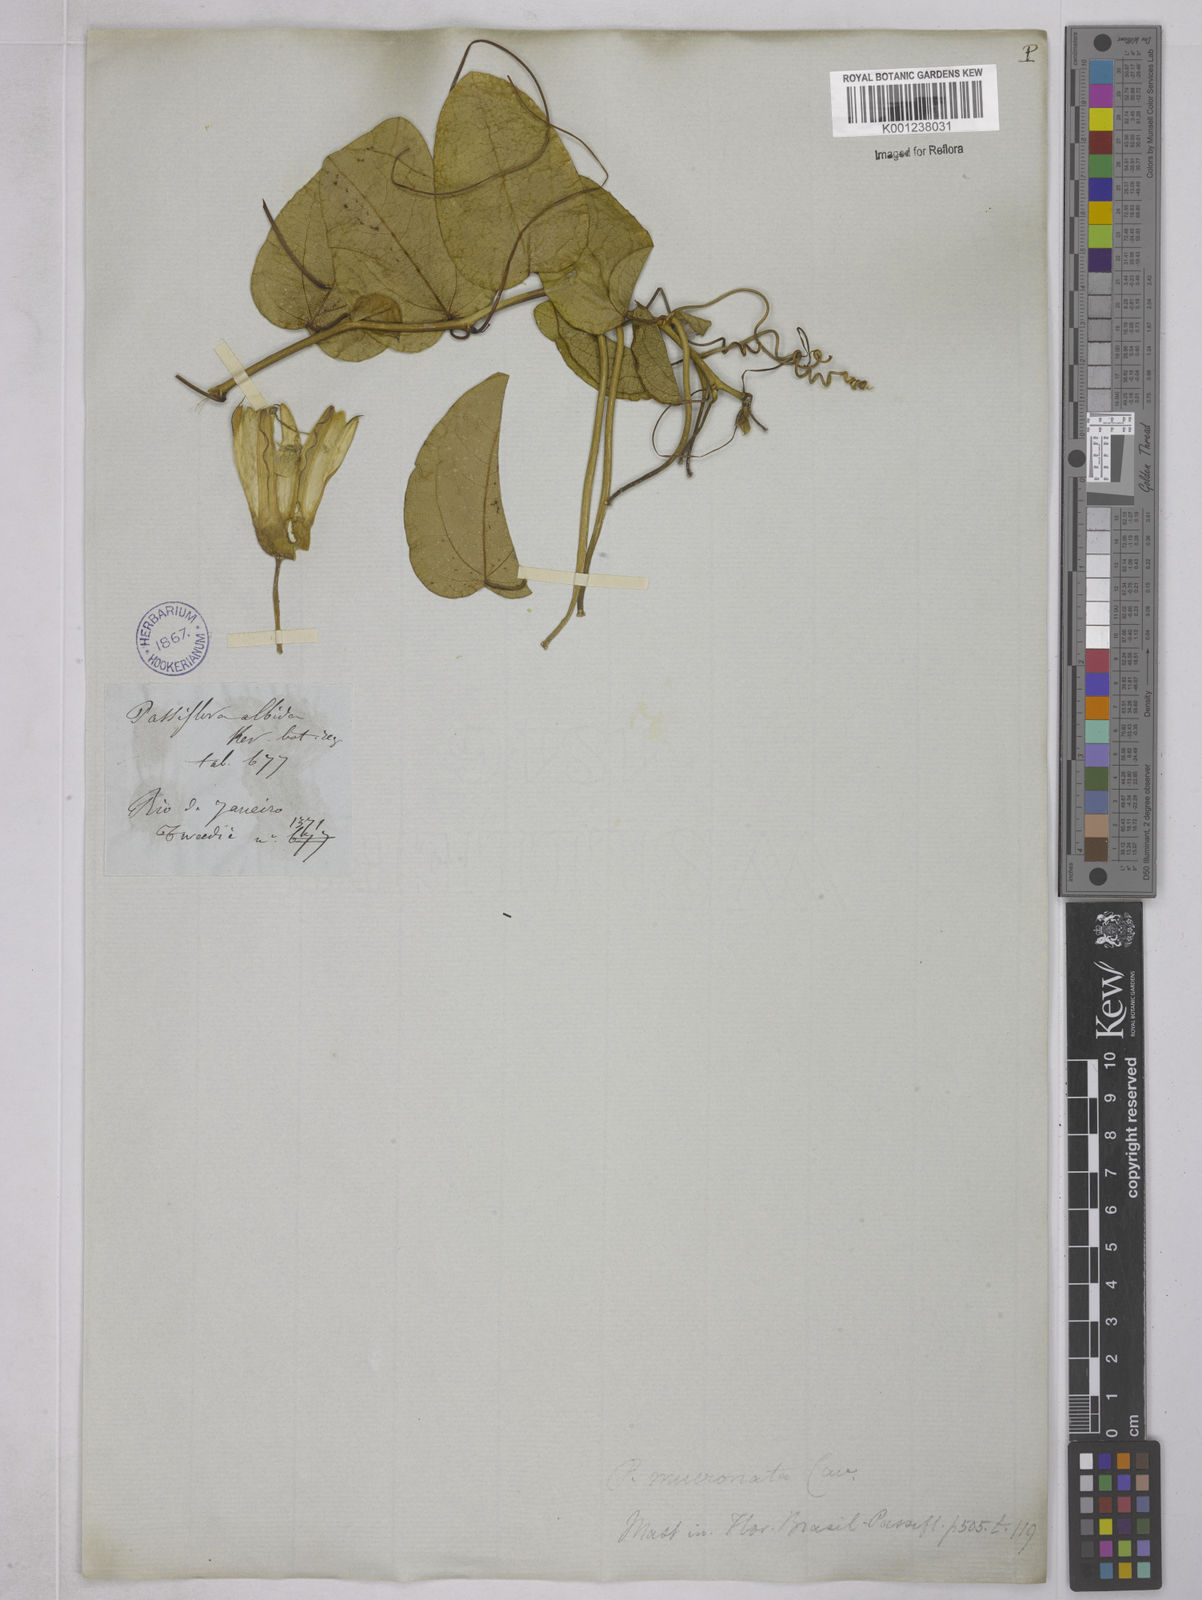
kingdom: Plantae
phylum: Tracheophyta
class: Magnoliopsida
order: Malpighiales
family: Passifloraceae
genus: Passiflora
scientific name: Passiflora mucronata
